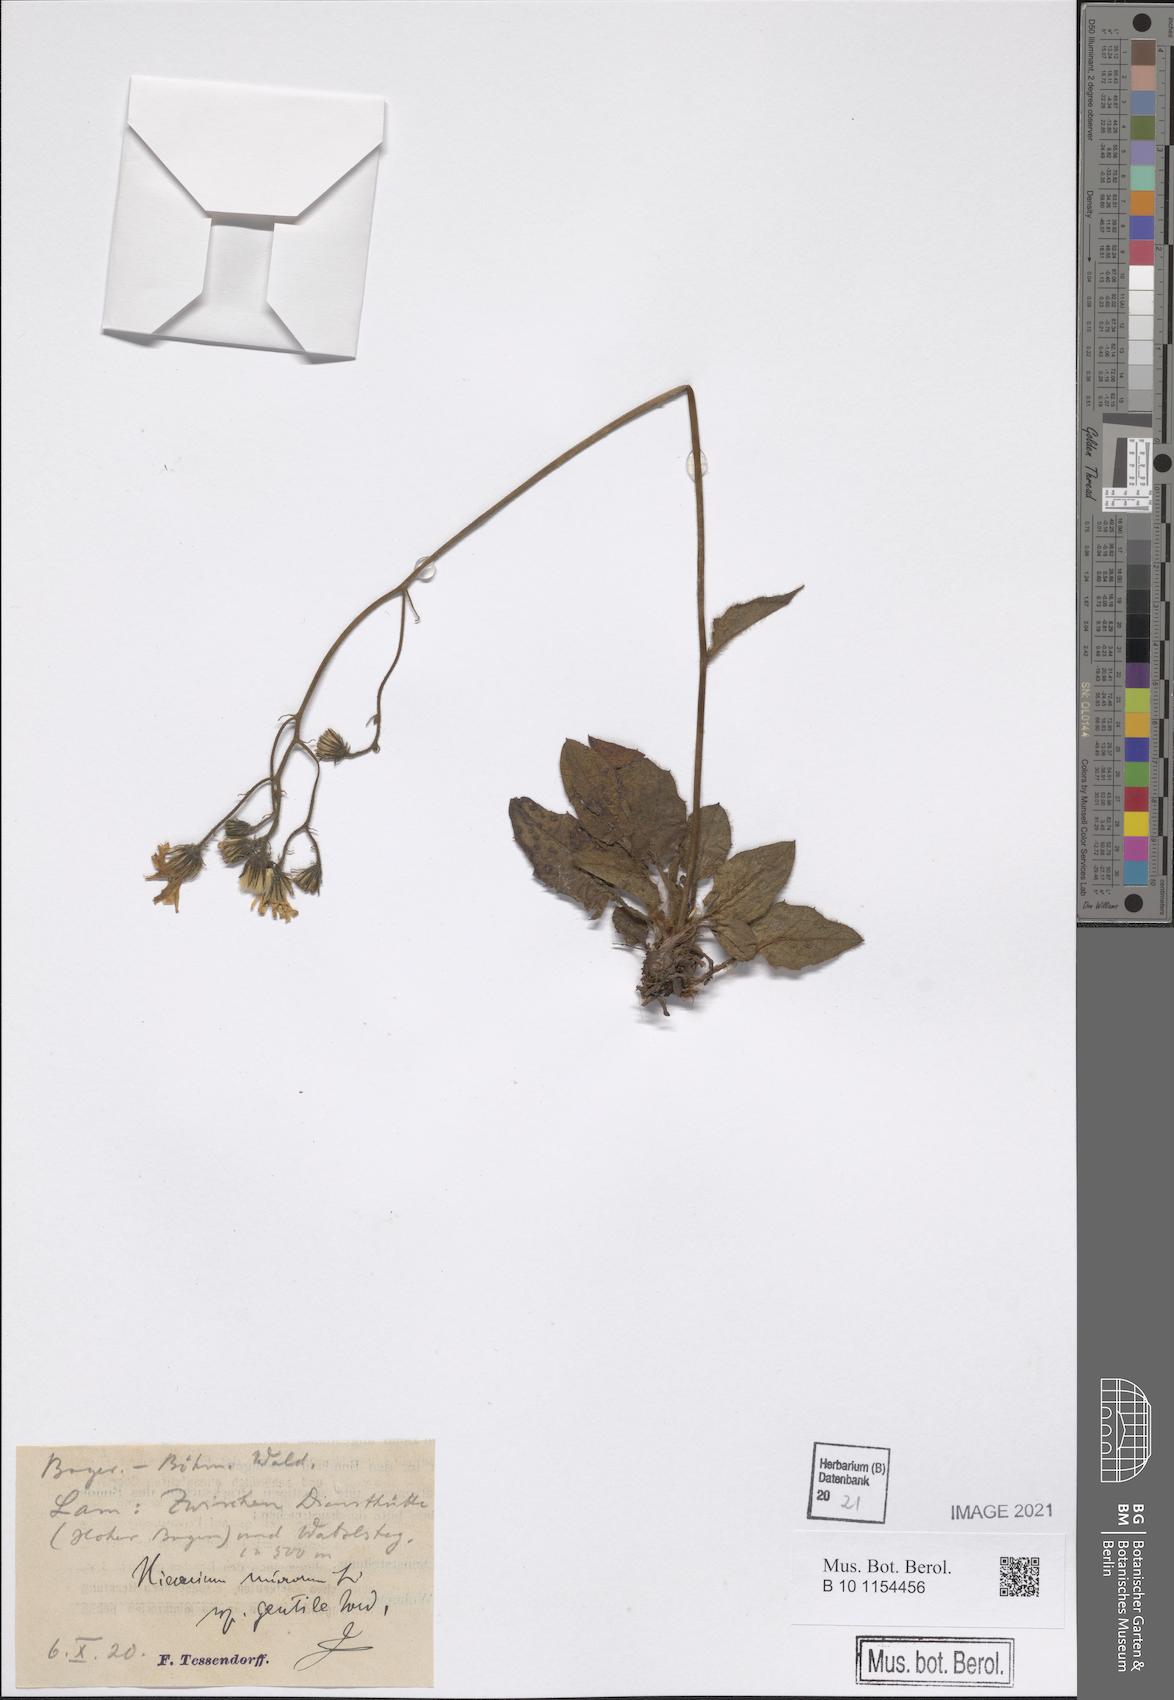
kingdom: Plantae
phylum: Tracheophyta
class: Magnoliopsida
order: Asterales
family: Asteraceae
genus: Hieracium
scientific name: Hieracium murorum
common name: Wall hawkweed
